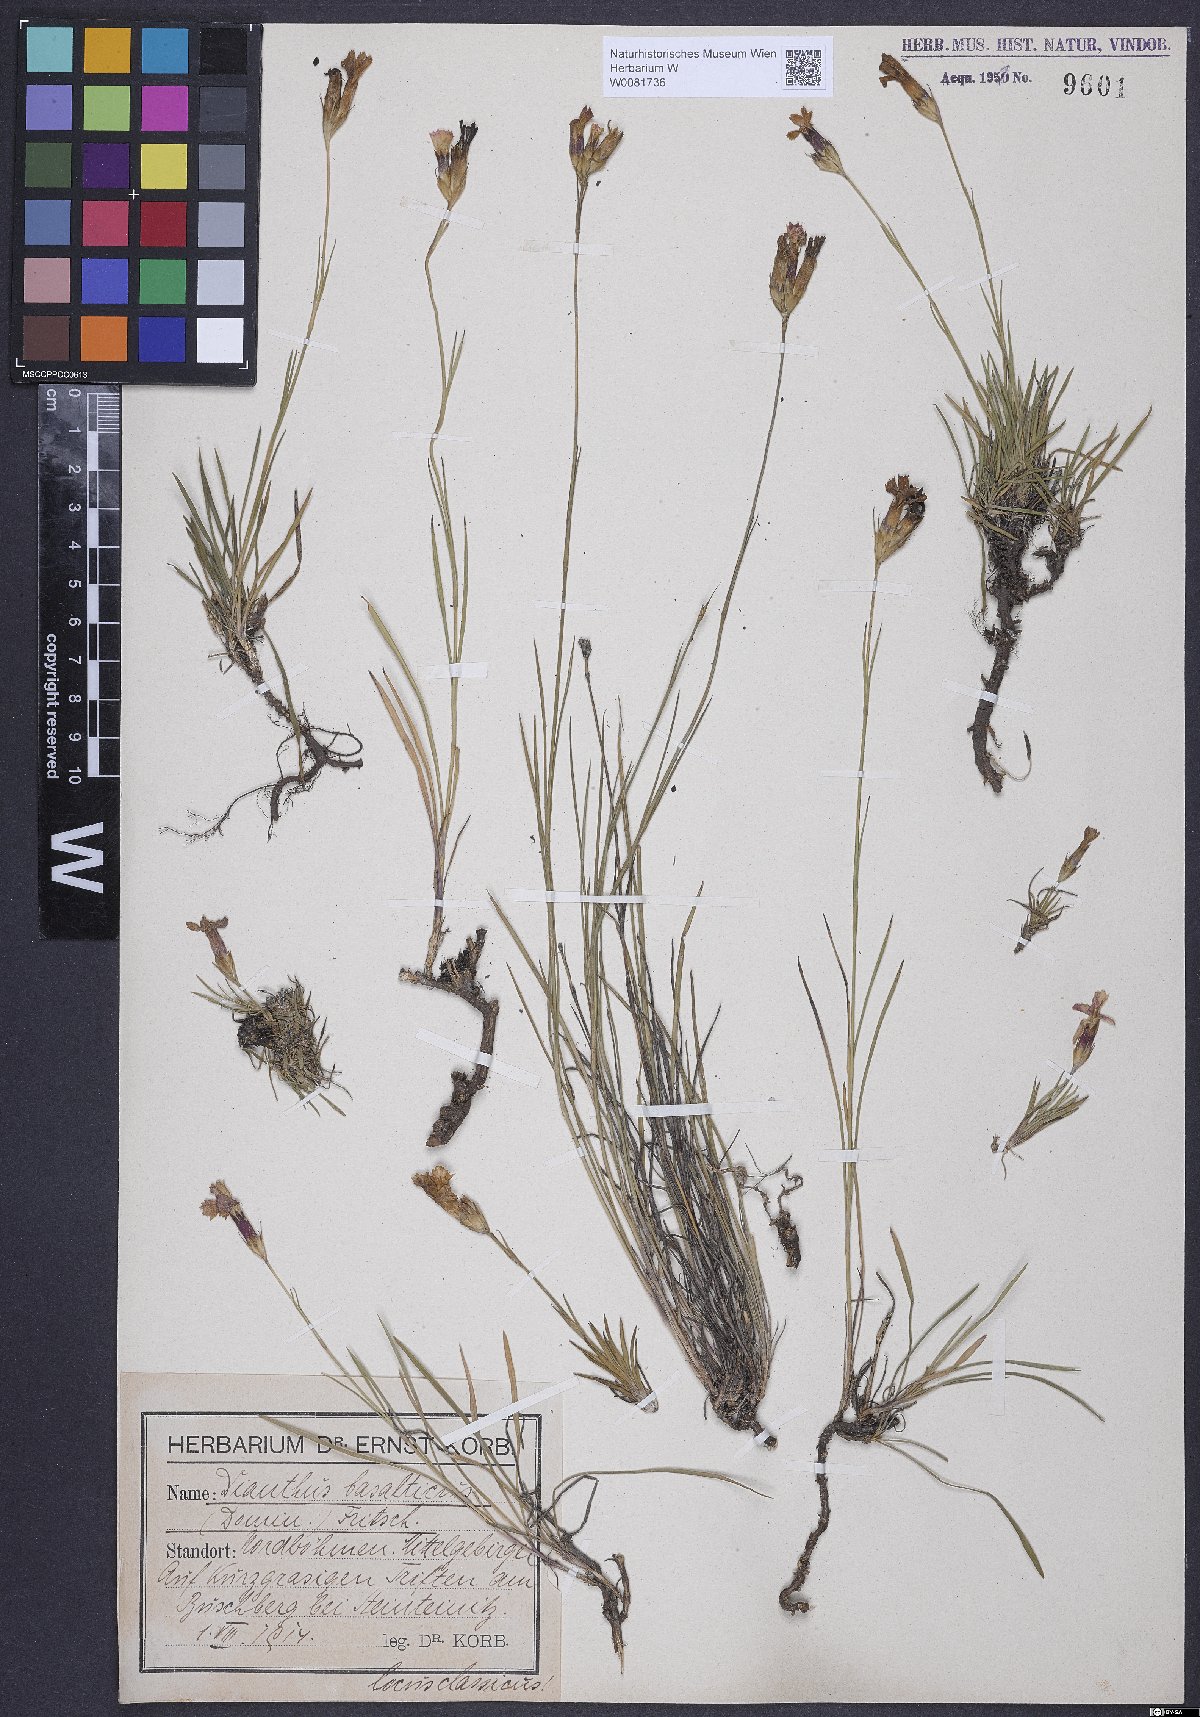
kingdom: Plantae
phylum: Tracheophyta
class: Magnoliopsida
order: Caryophyllales
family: Caryophyllaceae
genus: Dianthus
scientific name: Dianthus carthusianorum
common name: Carthusian pink
